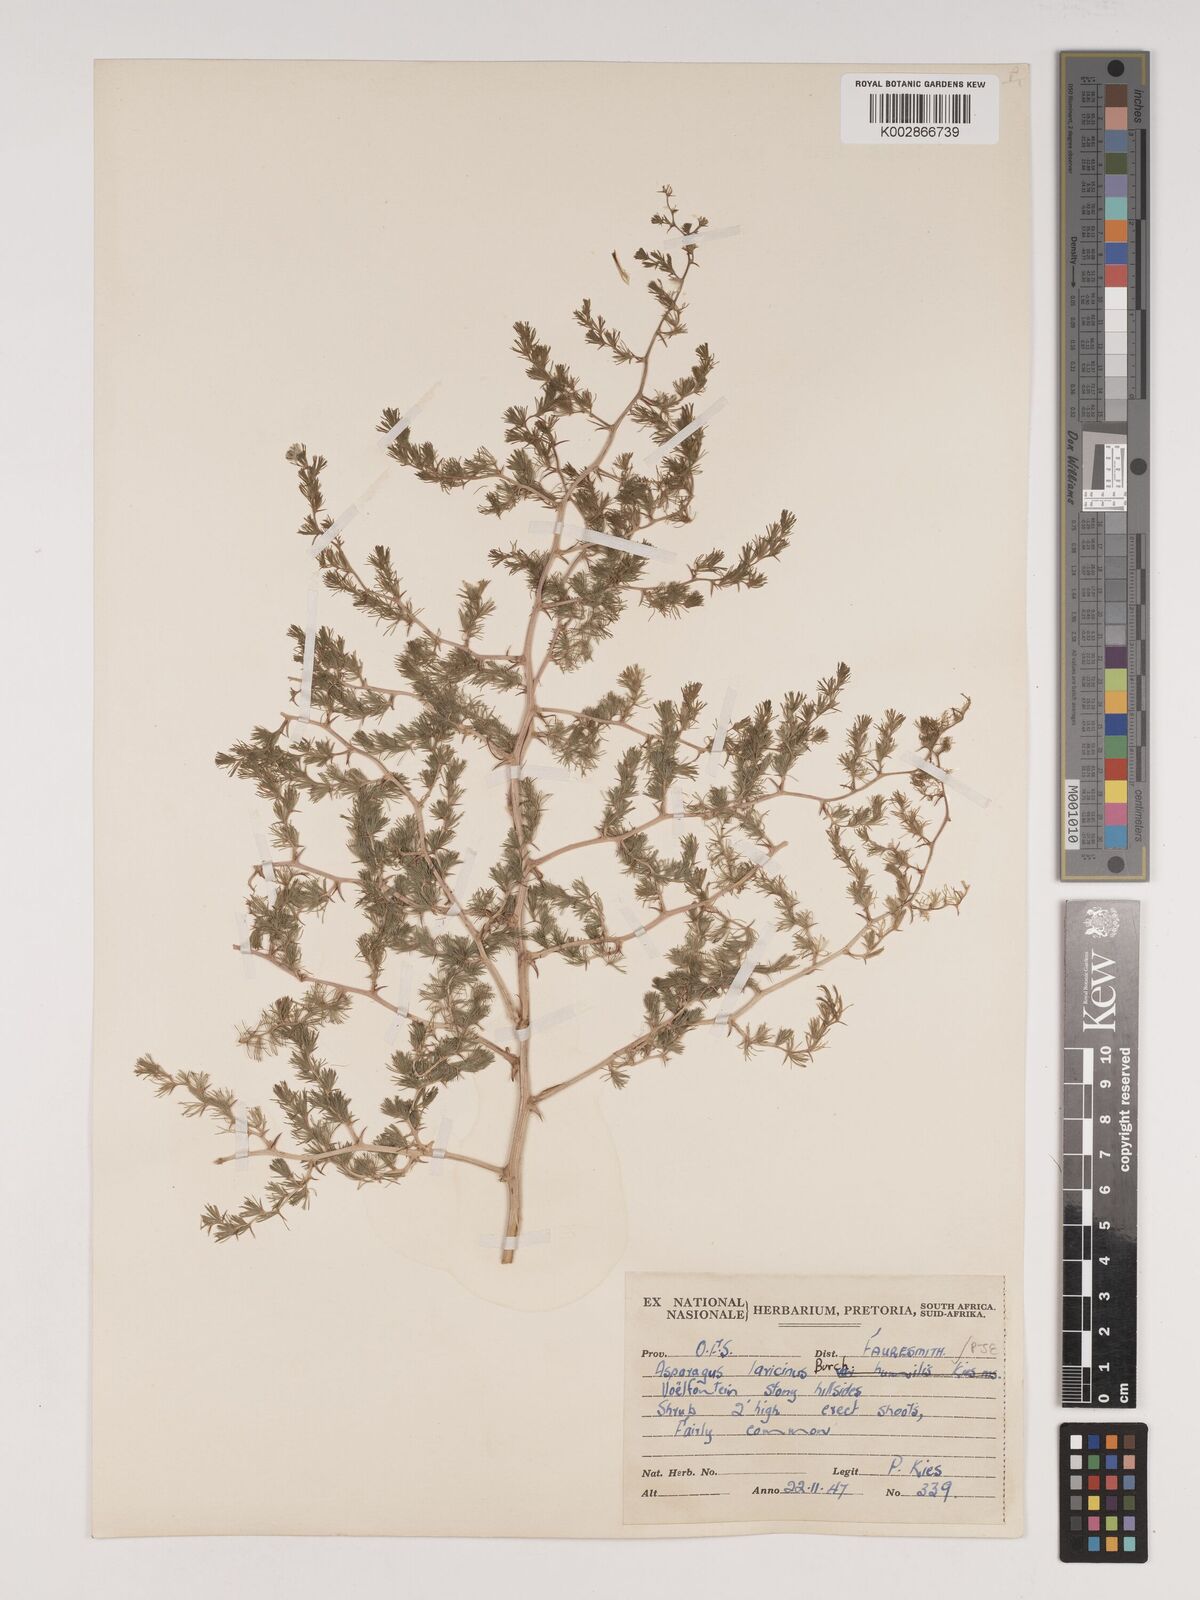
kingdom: Plantae
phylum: Tracheophyta
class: Liliopsida
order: Asparagales
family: Asparagaceae
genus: Asparagus
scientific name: Asparagus laricinus
